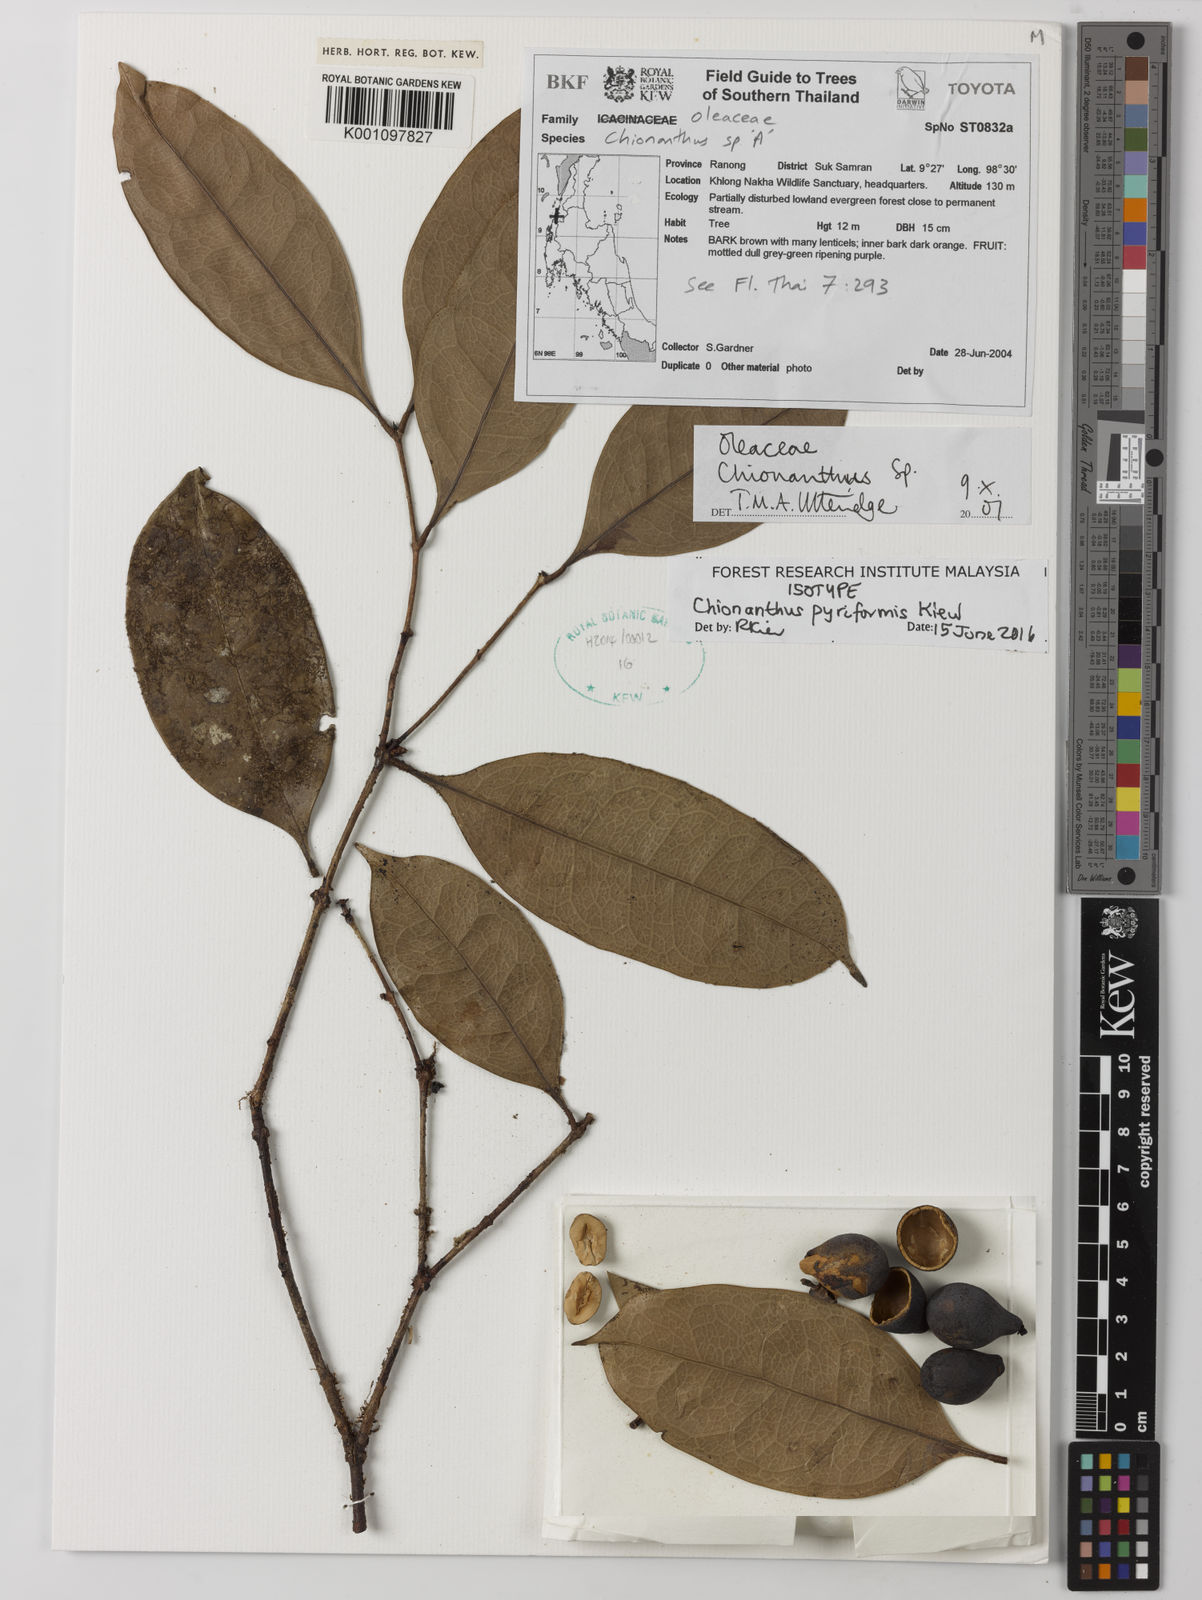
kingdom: Plantae
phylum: Tracheophyta
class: Magnoliopsida
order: Lamiales
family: Oleaceae
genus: Chionanthus
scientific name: Chionanthus pyriformis
